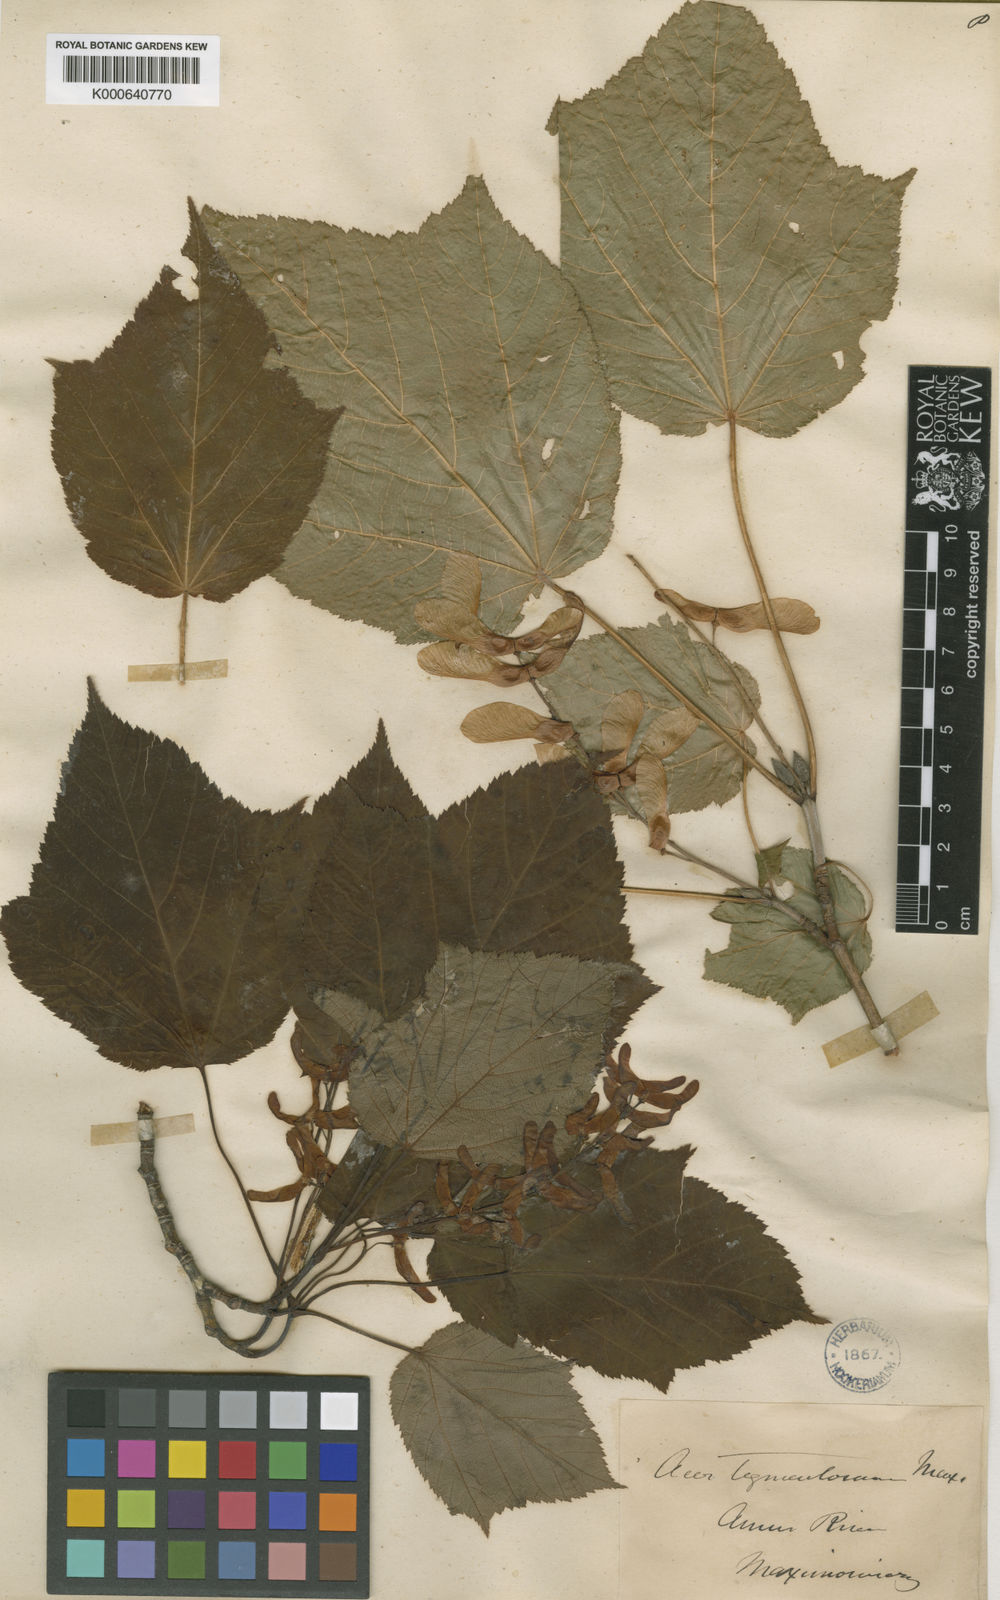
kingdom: Plantae
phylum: Tracheophyta
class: Magnoliopsida
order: Sapindales
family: Sapindaceae
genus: Acer
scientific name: Acer tegmentosum
